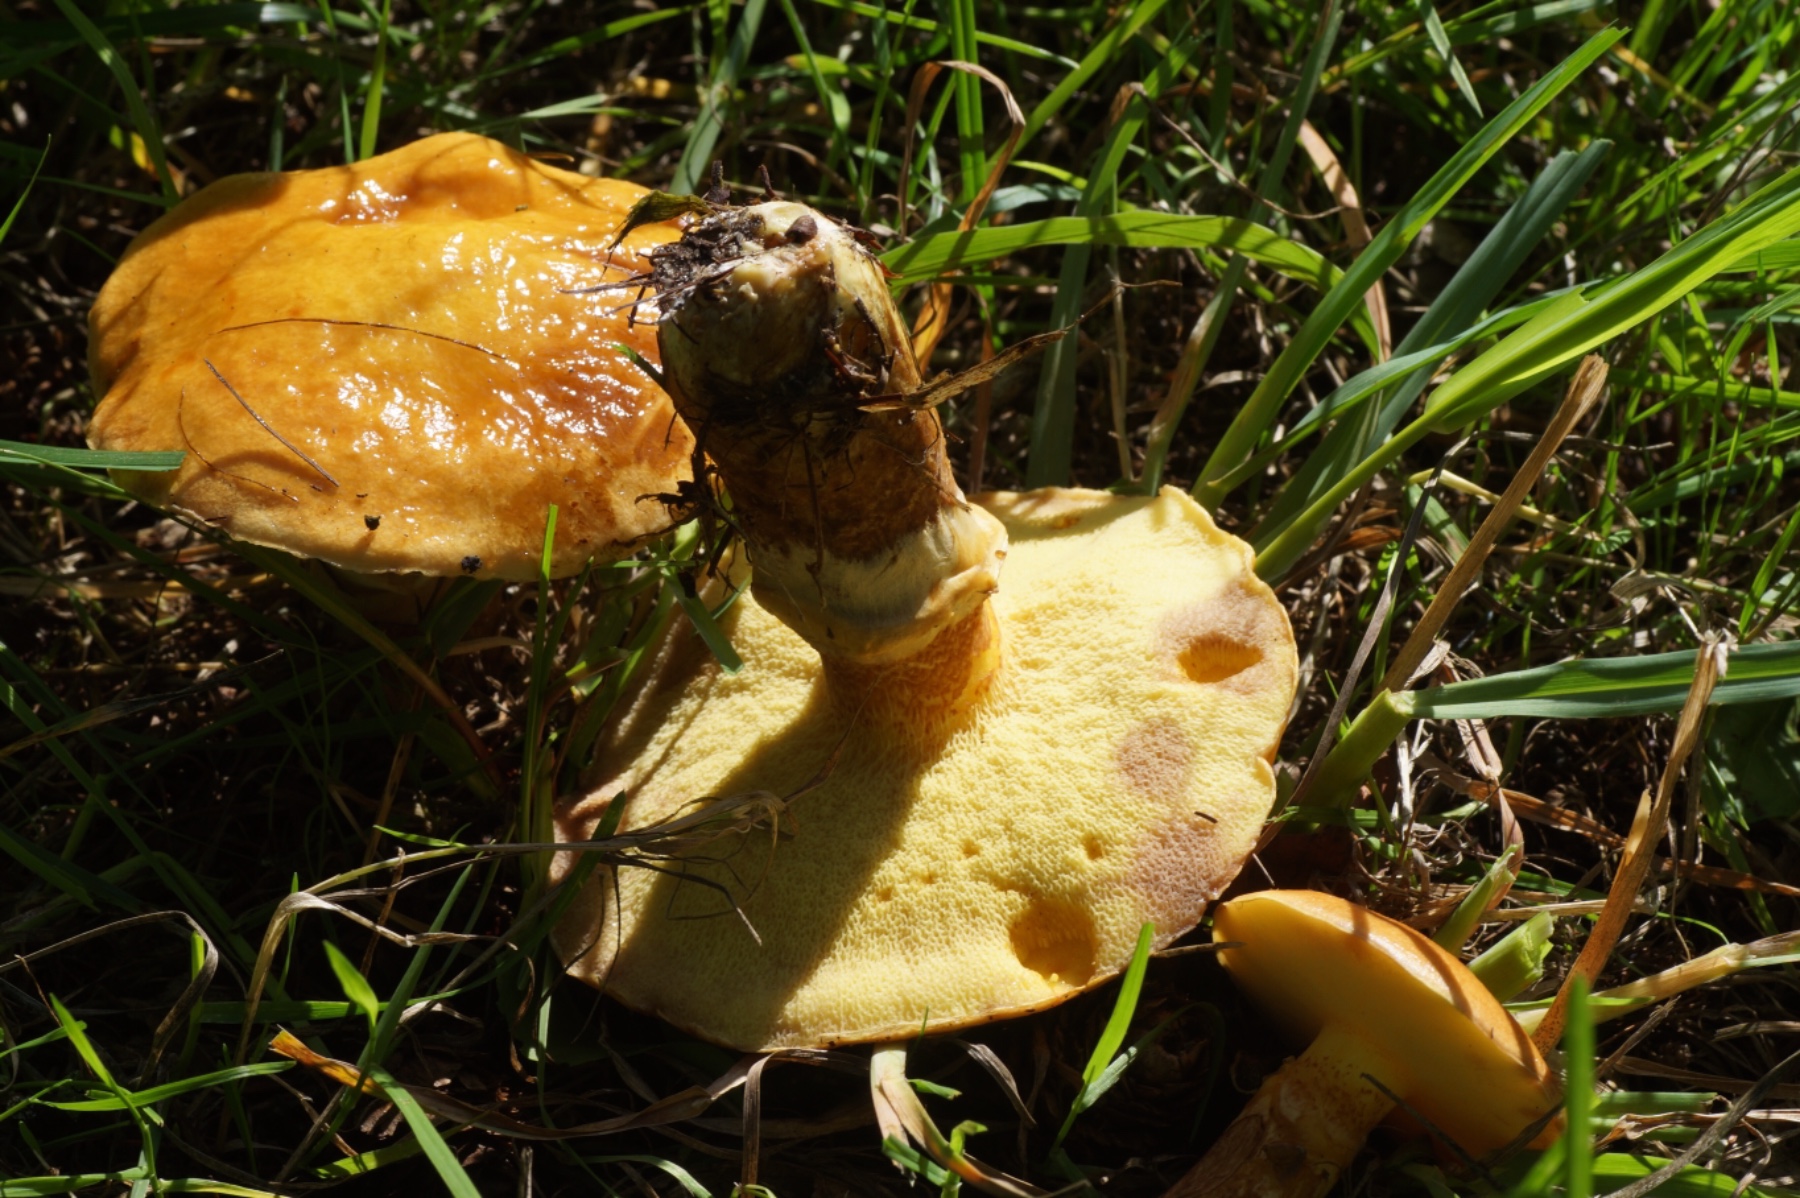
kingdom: Fungi
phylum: Basidiomycota
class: Agaricomycetes
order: Boletales
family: Suillaceae
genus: Suillus
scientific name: Suillus grevillei
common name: lærke-slimrørhat
